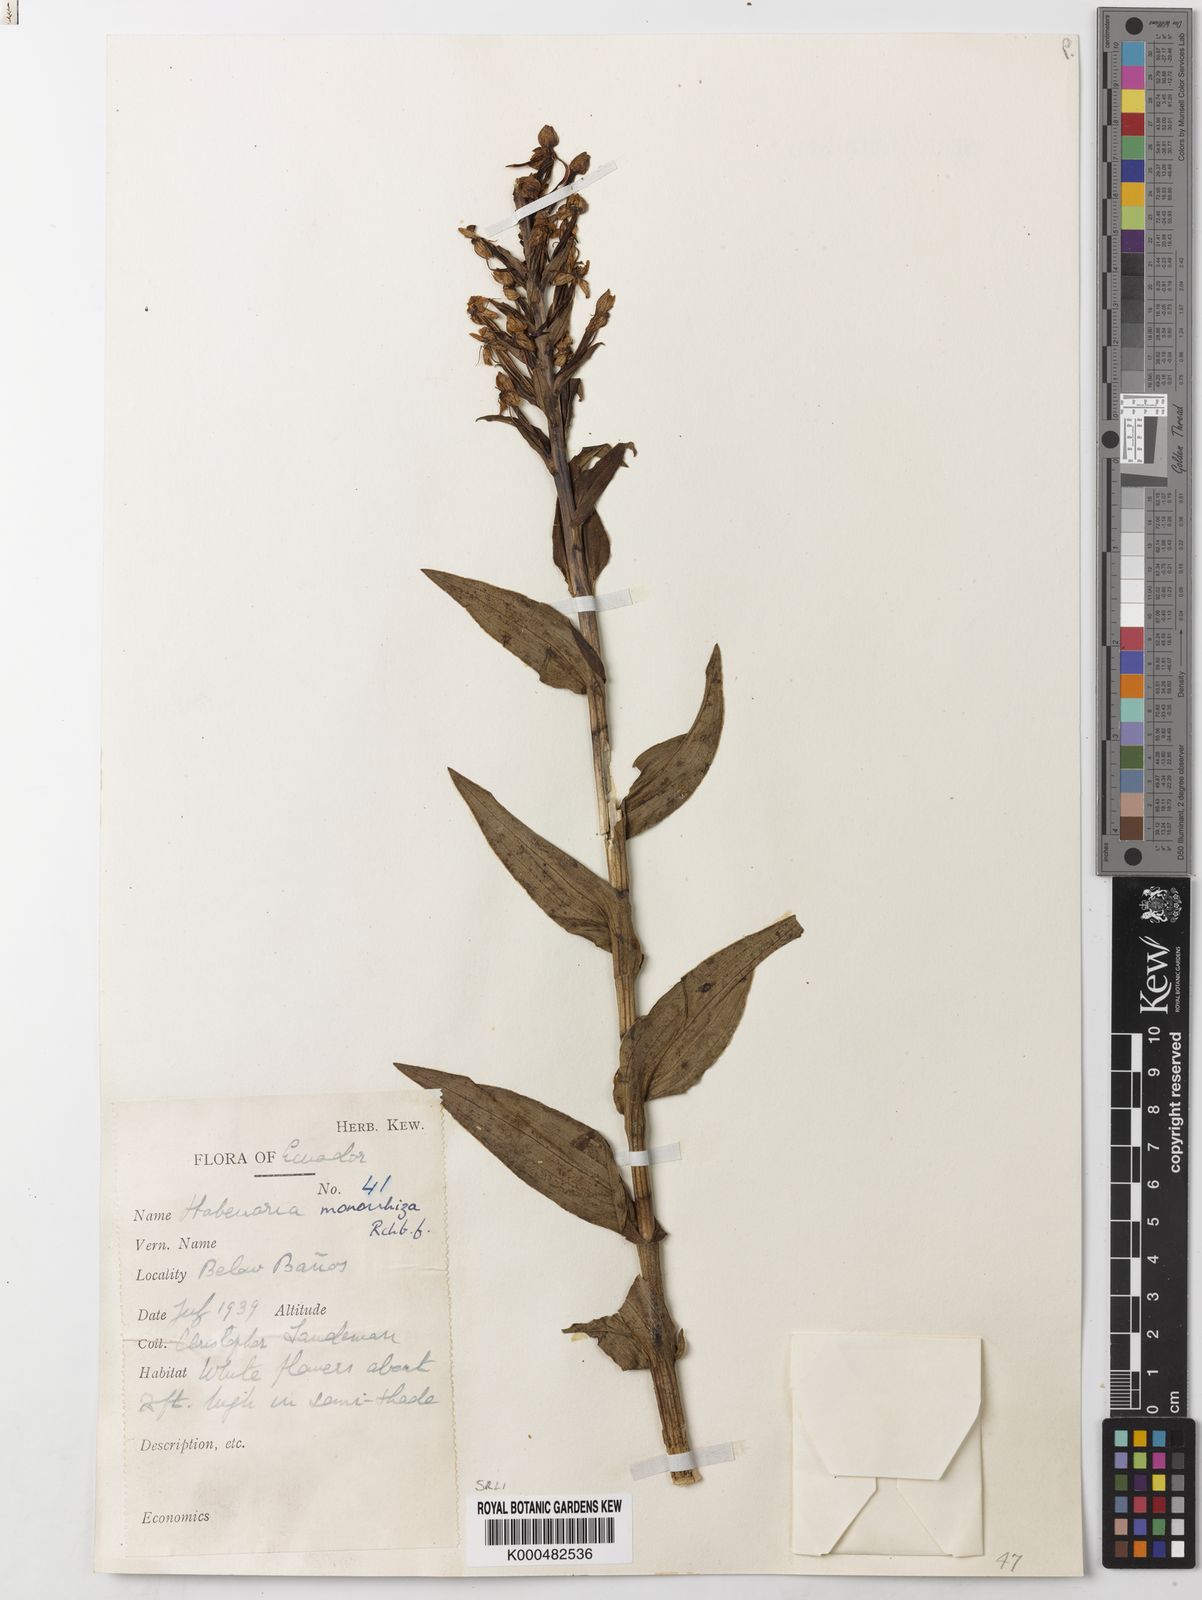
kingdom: Plantae
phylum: Tracheophyta
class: Liliopsida
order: Asparagales
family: Orchidaceae
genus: Habenaria
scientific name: Habenaria monorrhiza
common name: Tropical bog orchid
